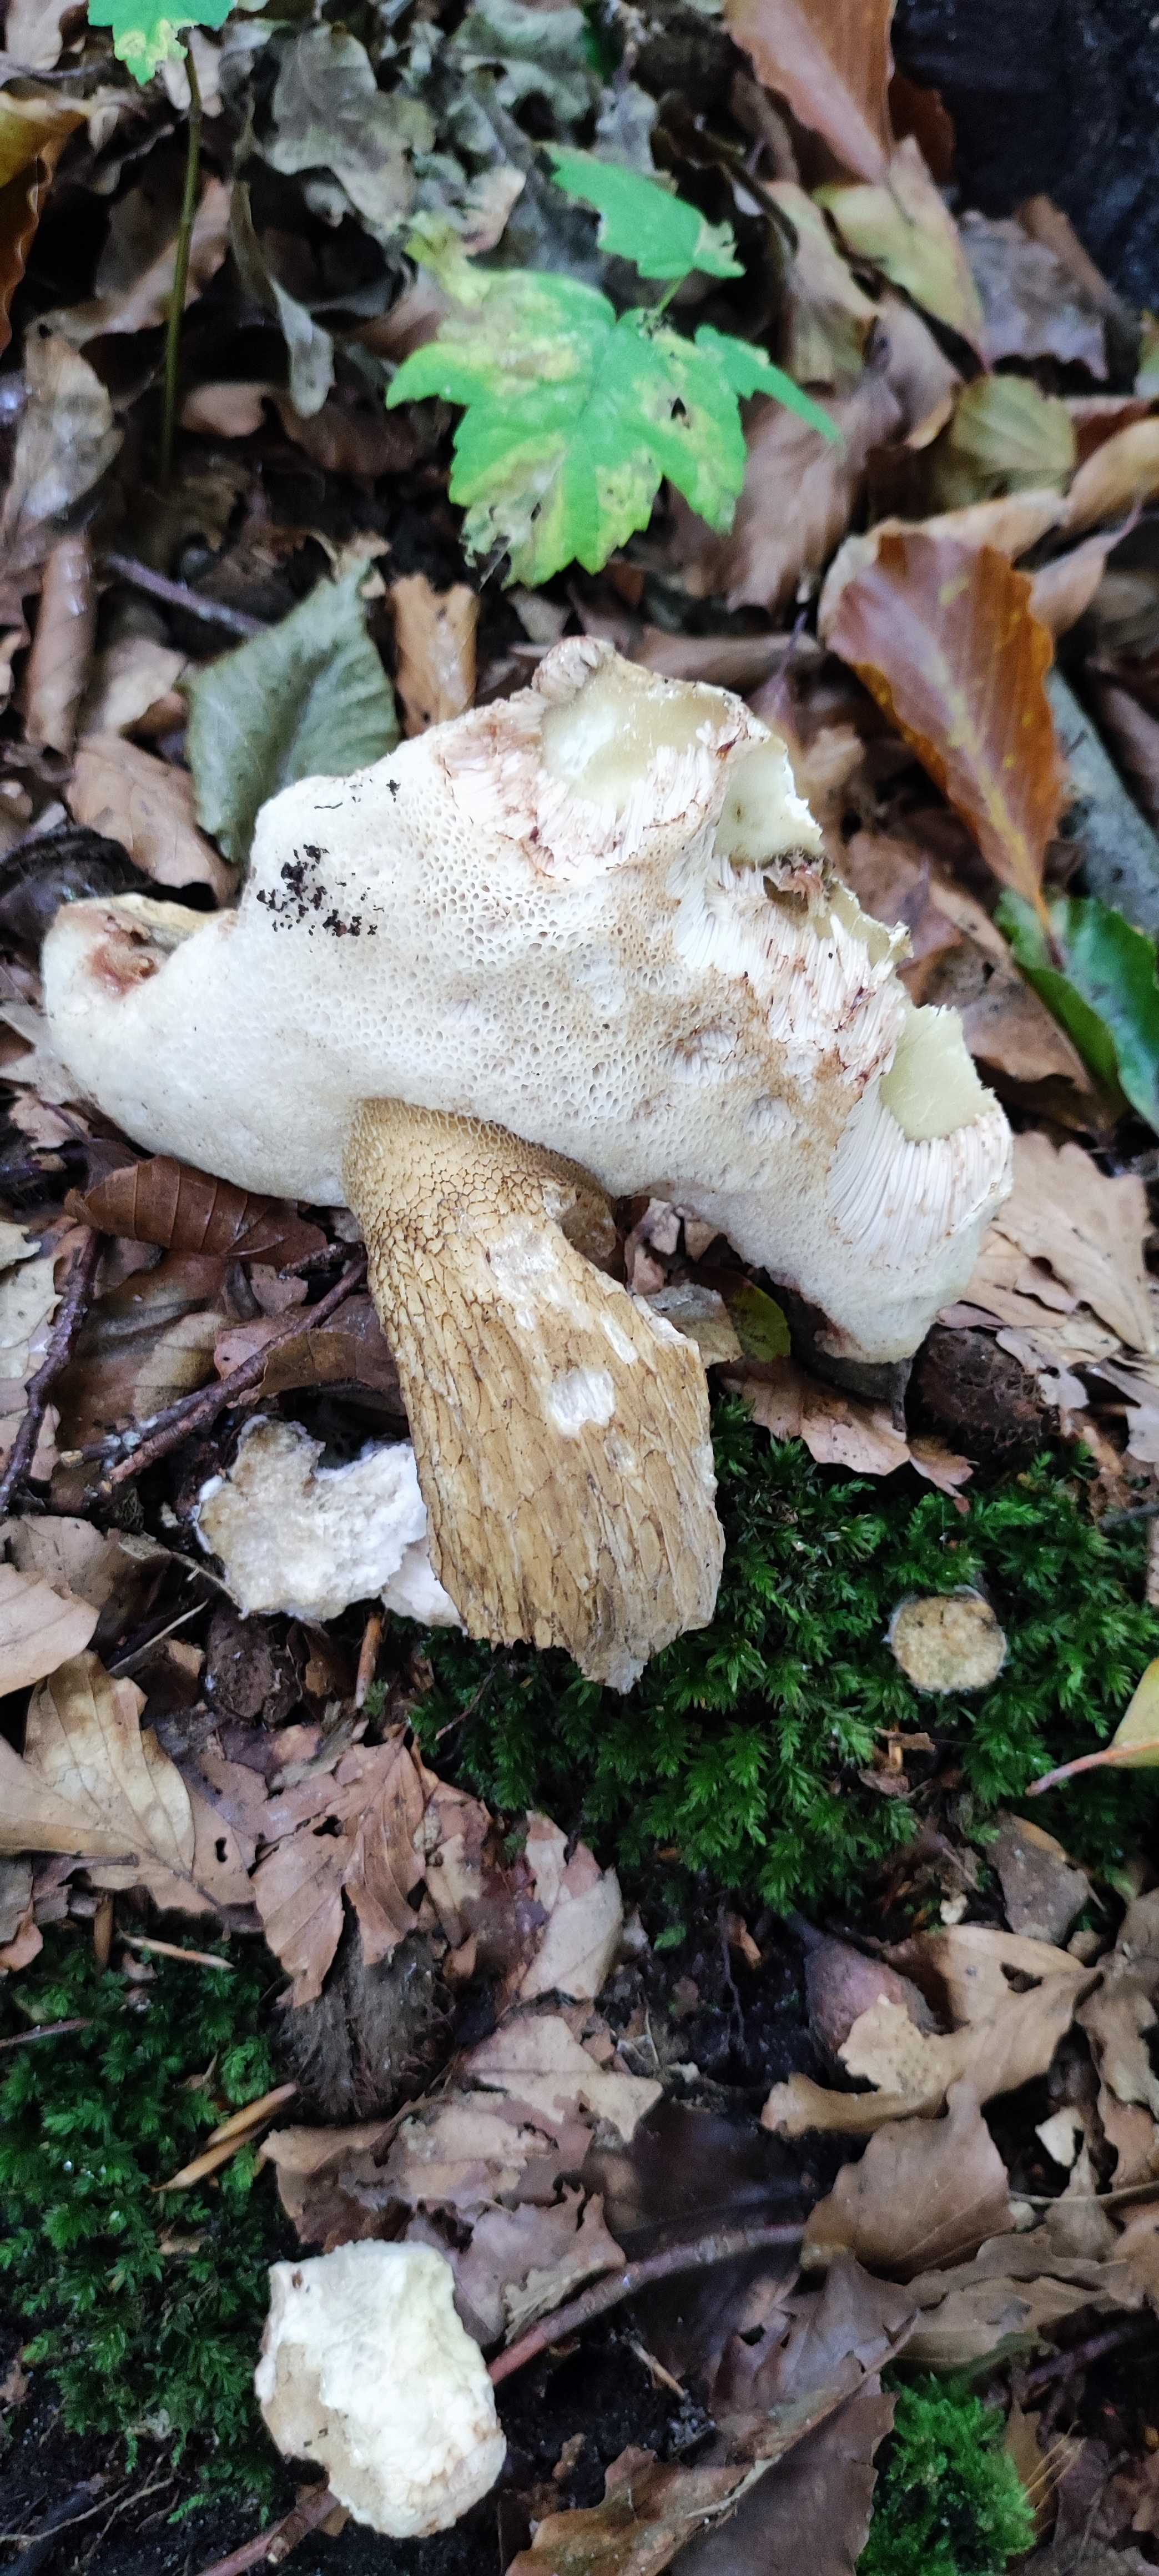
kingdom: Fungi
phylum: Basidiomycota
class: Agaricomycetes
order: Boletales
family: Boletaceae
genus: Tylopilus
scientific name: Tylopilus felleus
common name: galderørhat
